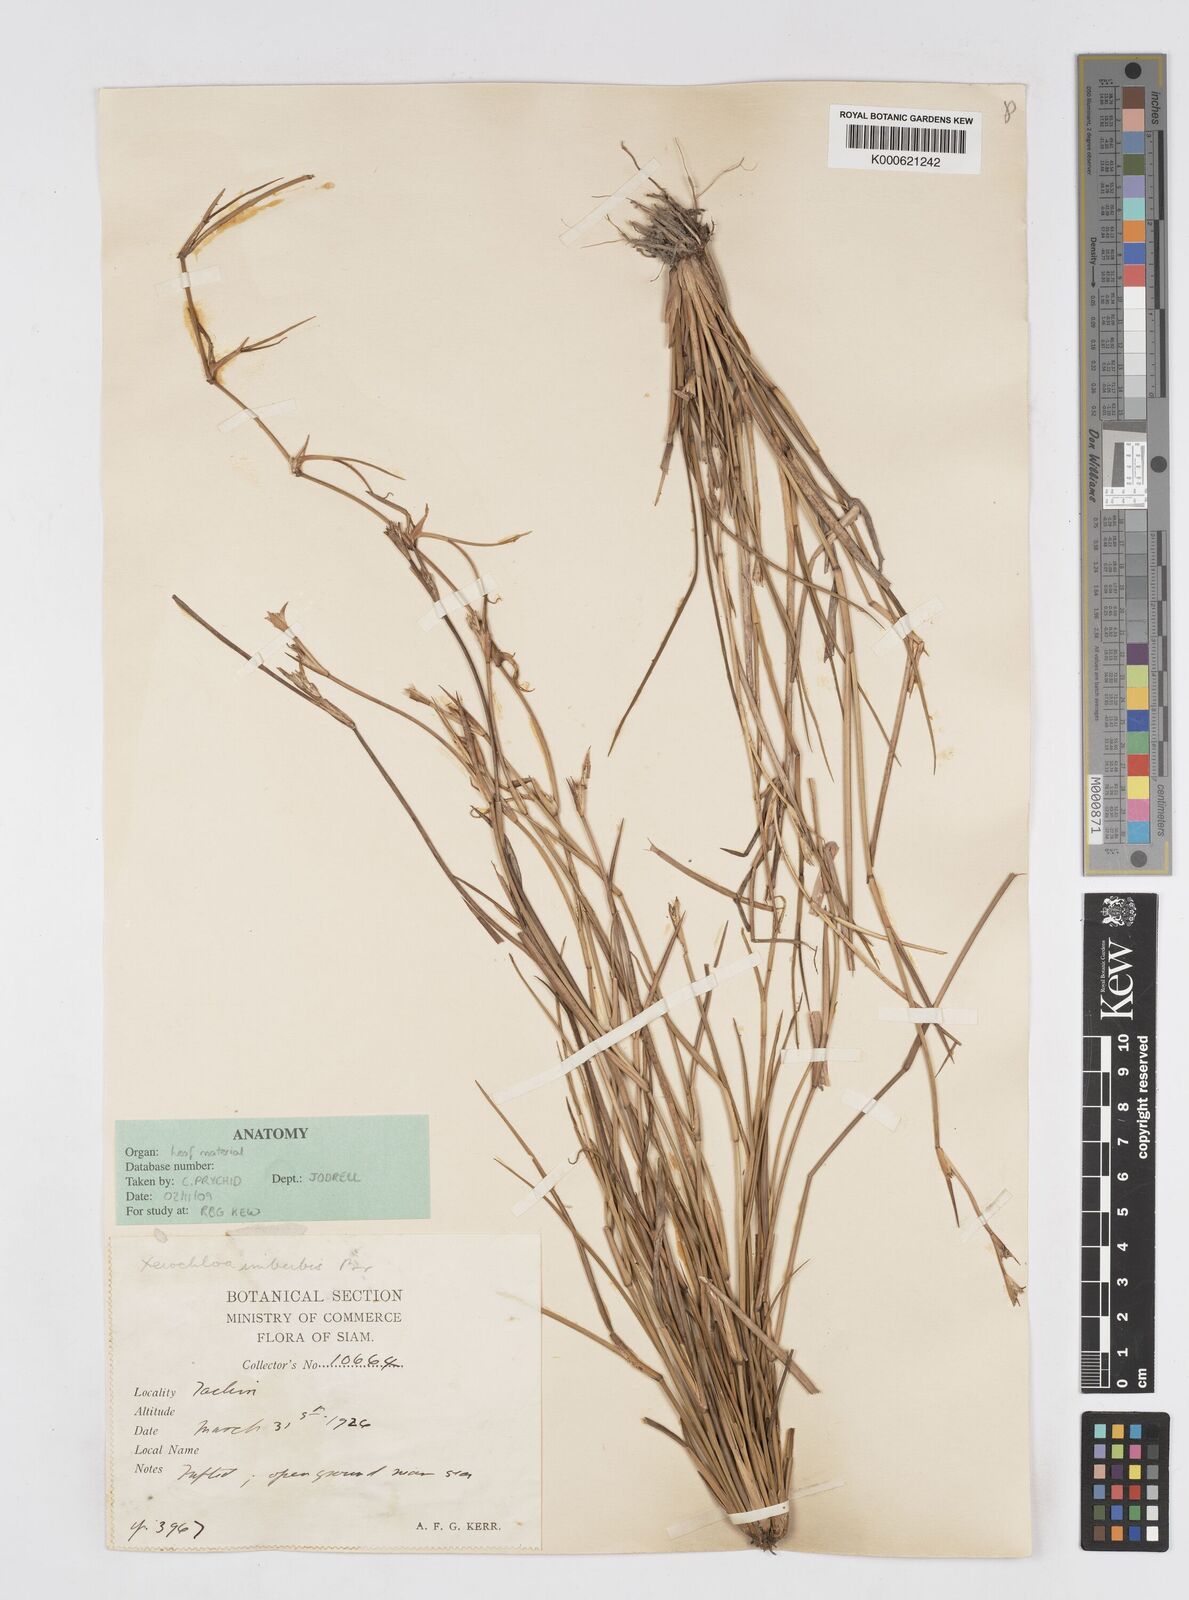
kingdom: Plantae
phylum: Tracheophyta
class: Liliopsida
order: Poales
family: Poaceae
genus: Xerochloa
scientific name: Xerochloa imberbis
